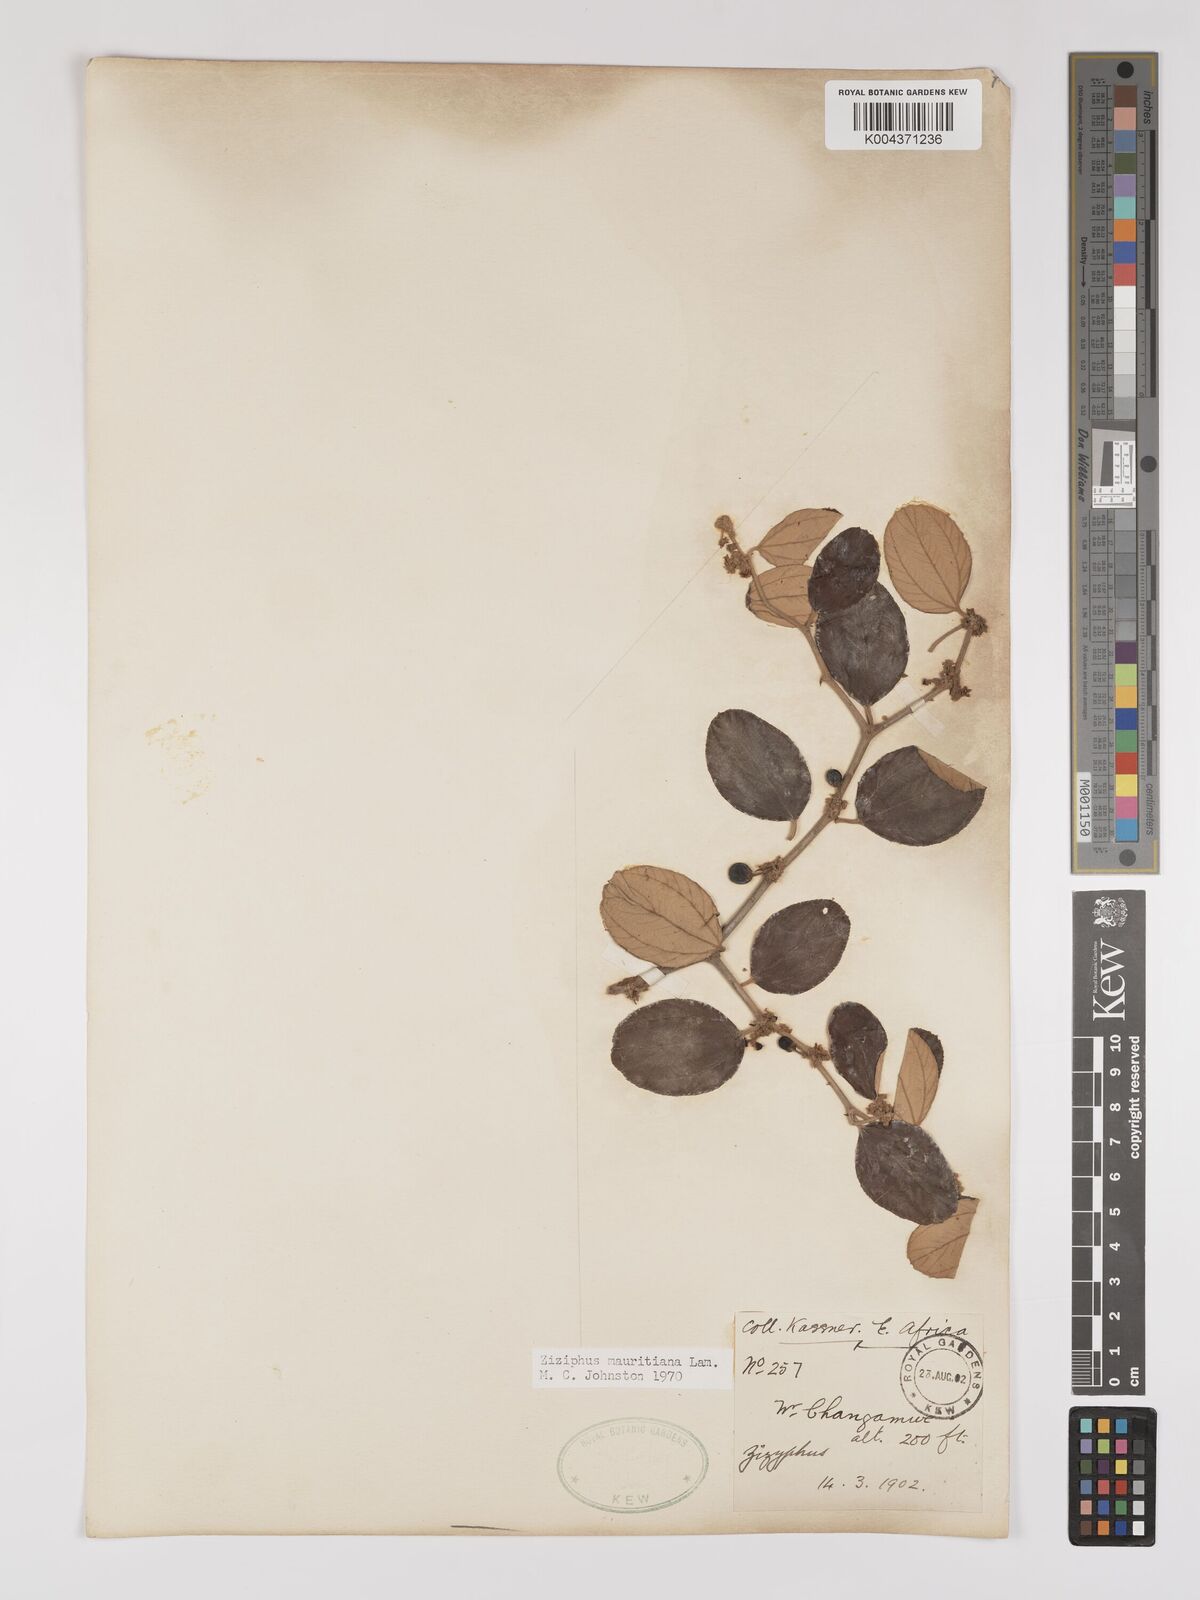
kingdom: Plantae
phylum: Tracheophyta
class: Magnoliopsida
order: Rosales
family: Rhamnaceae
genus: Ziziphus
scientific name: Ziziphus mauritiana
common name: Indian jujube
